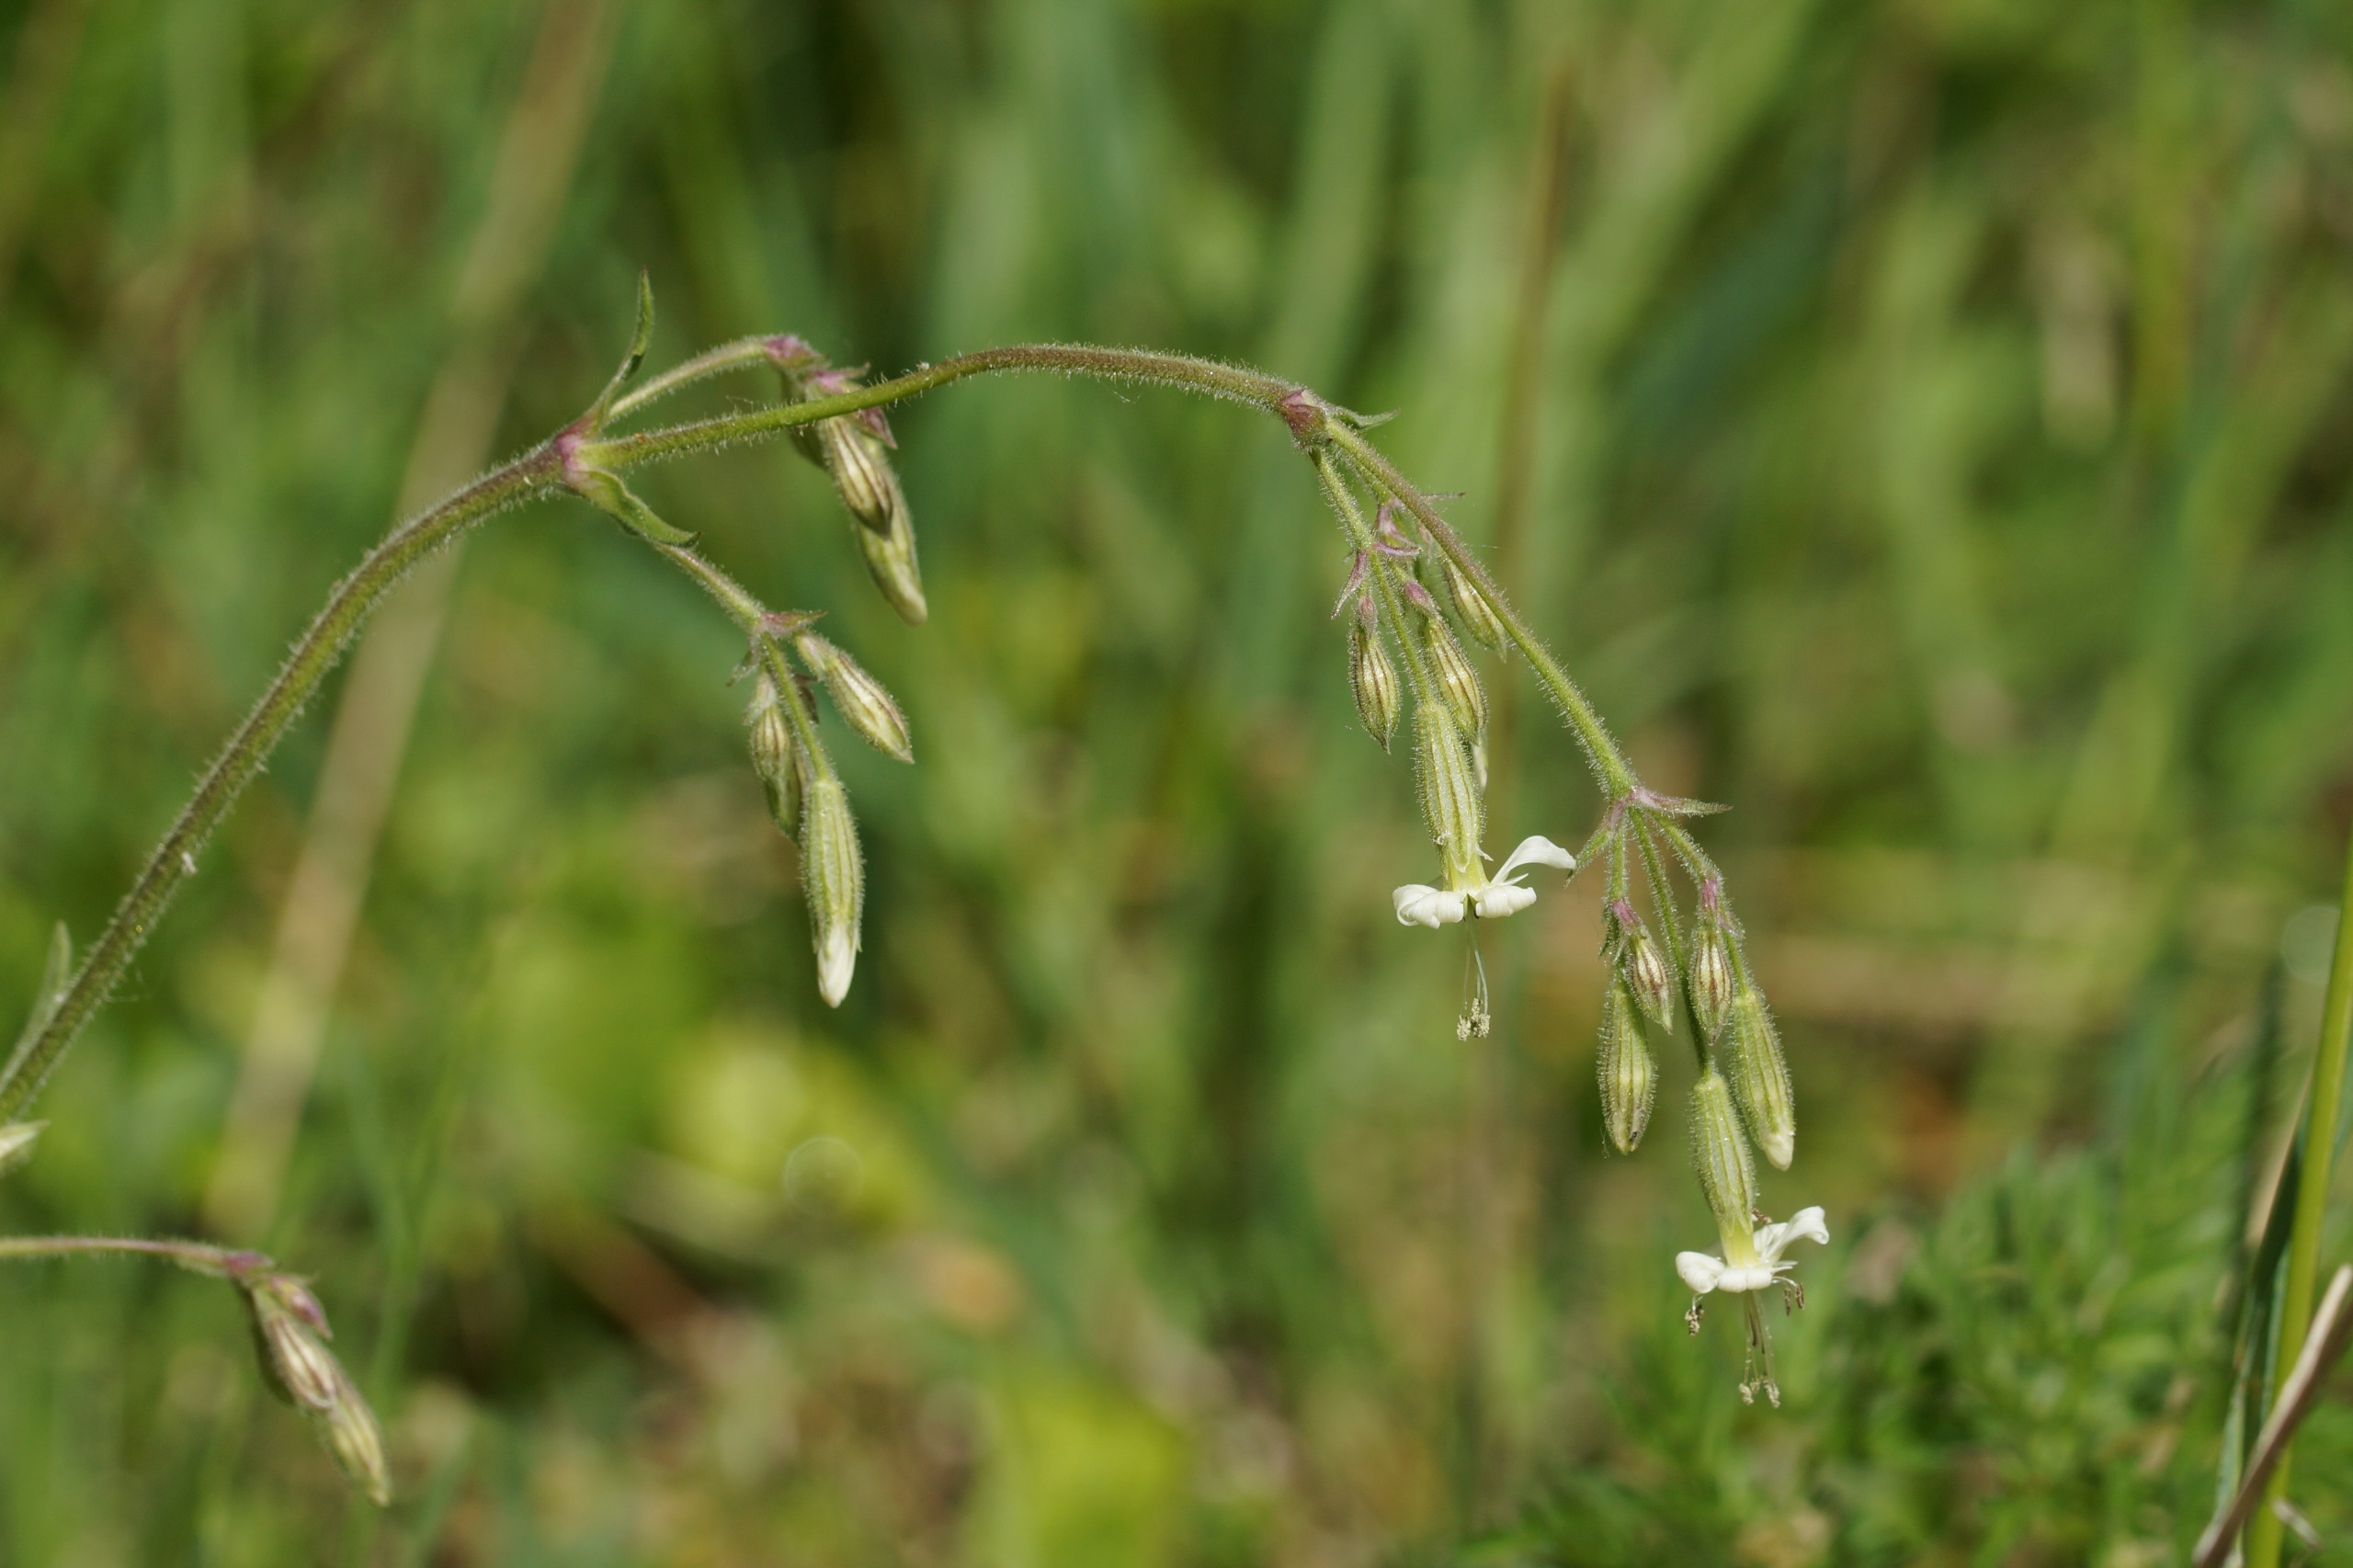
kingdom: Plantae
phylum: Tracheophyta
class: Magnoliopsida
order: Caryophyllales
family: Caryophyllaceae
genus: Silene
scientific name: Silene nutans
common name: Nikkende limurt
